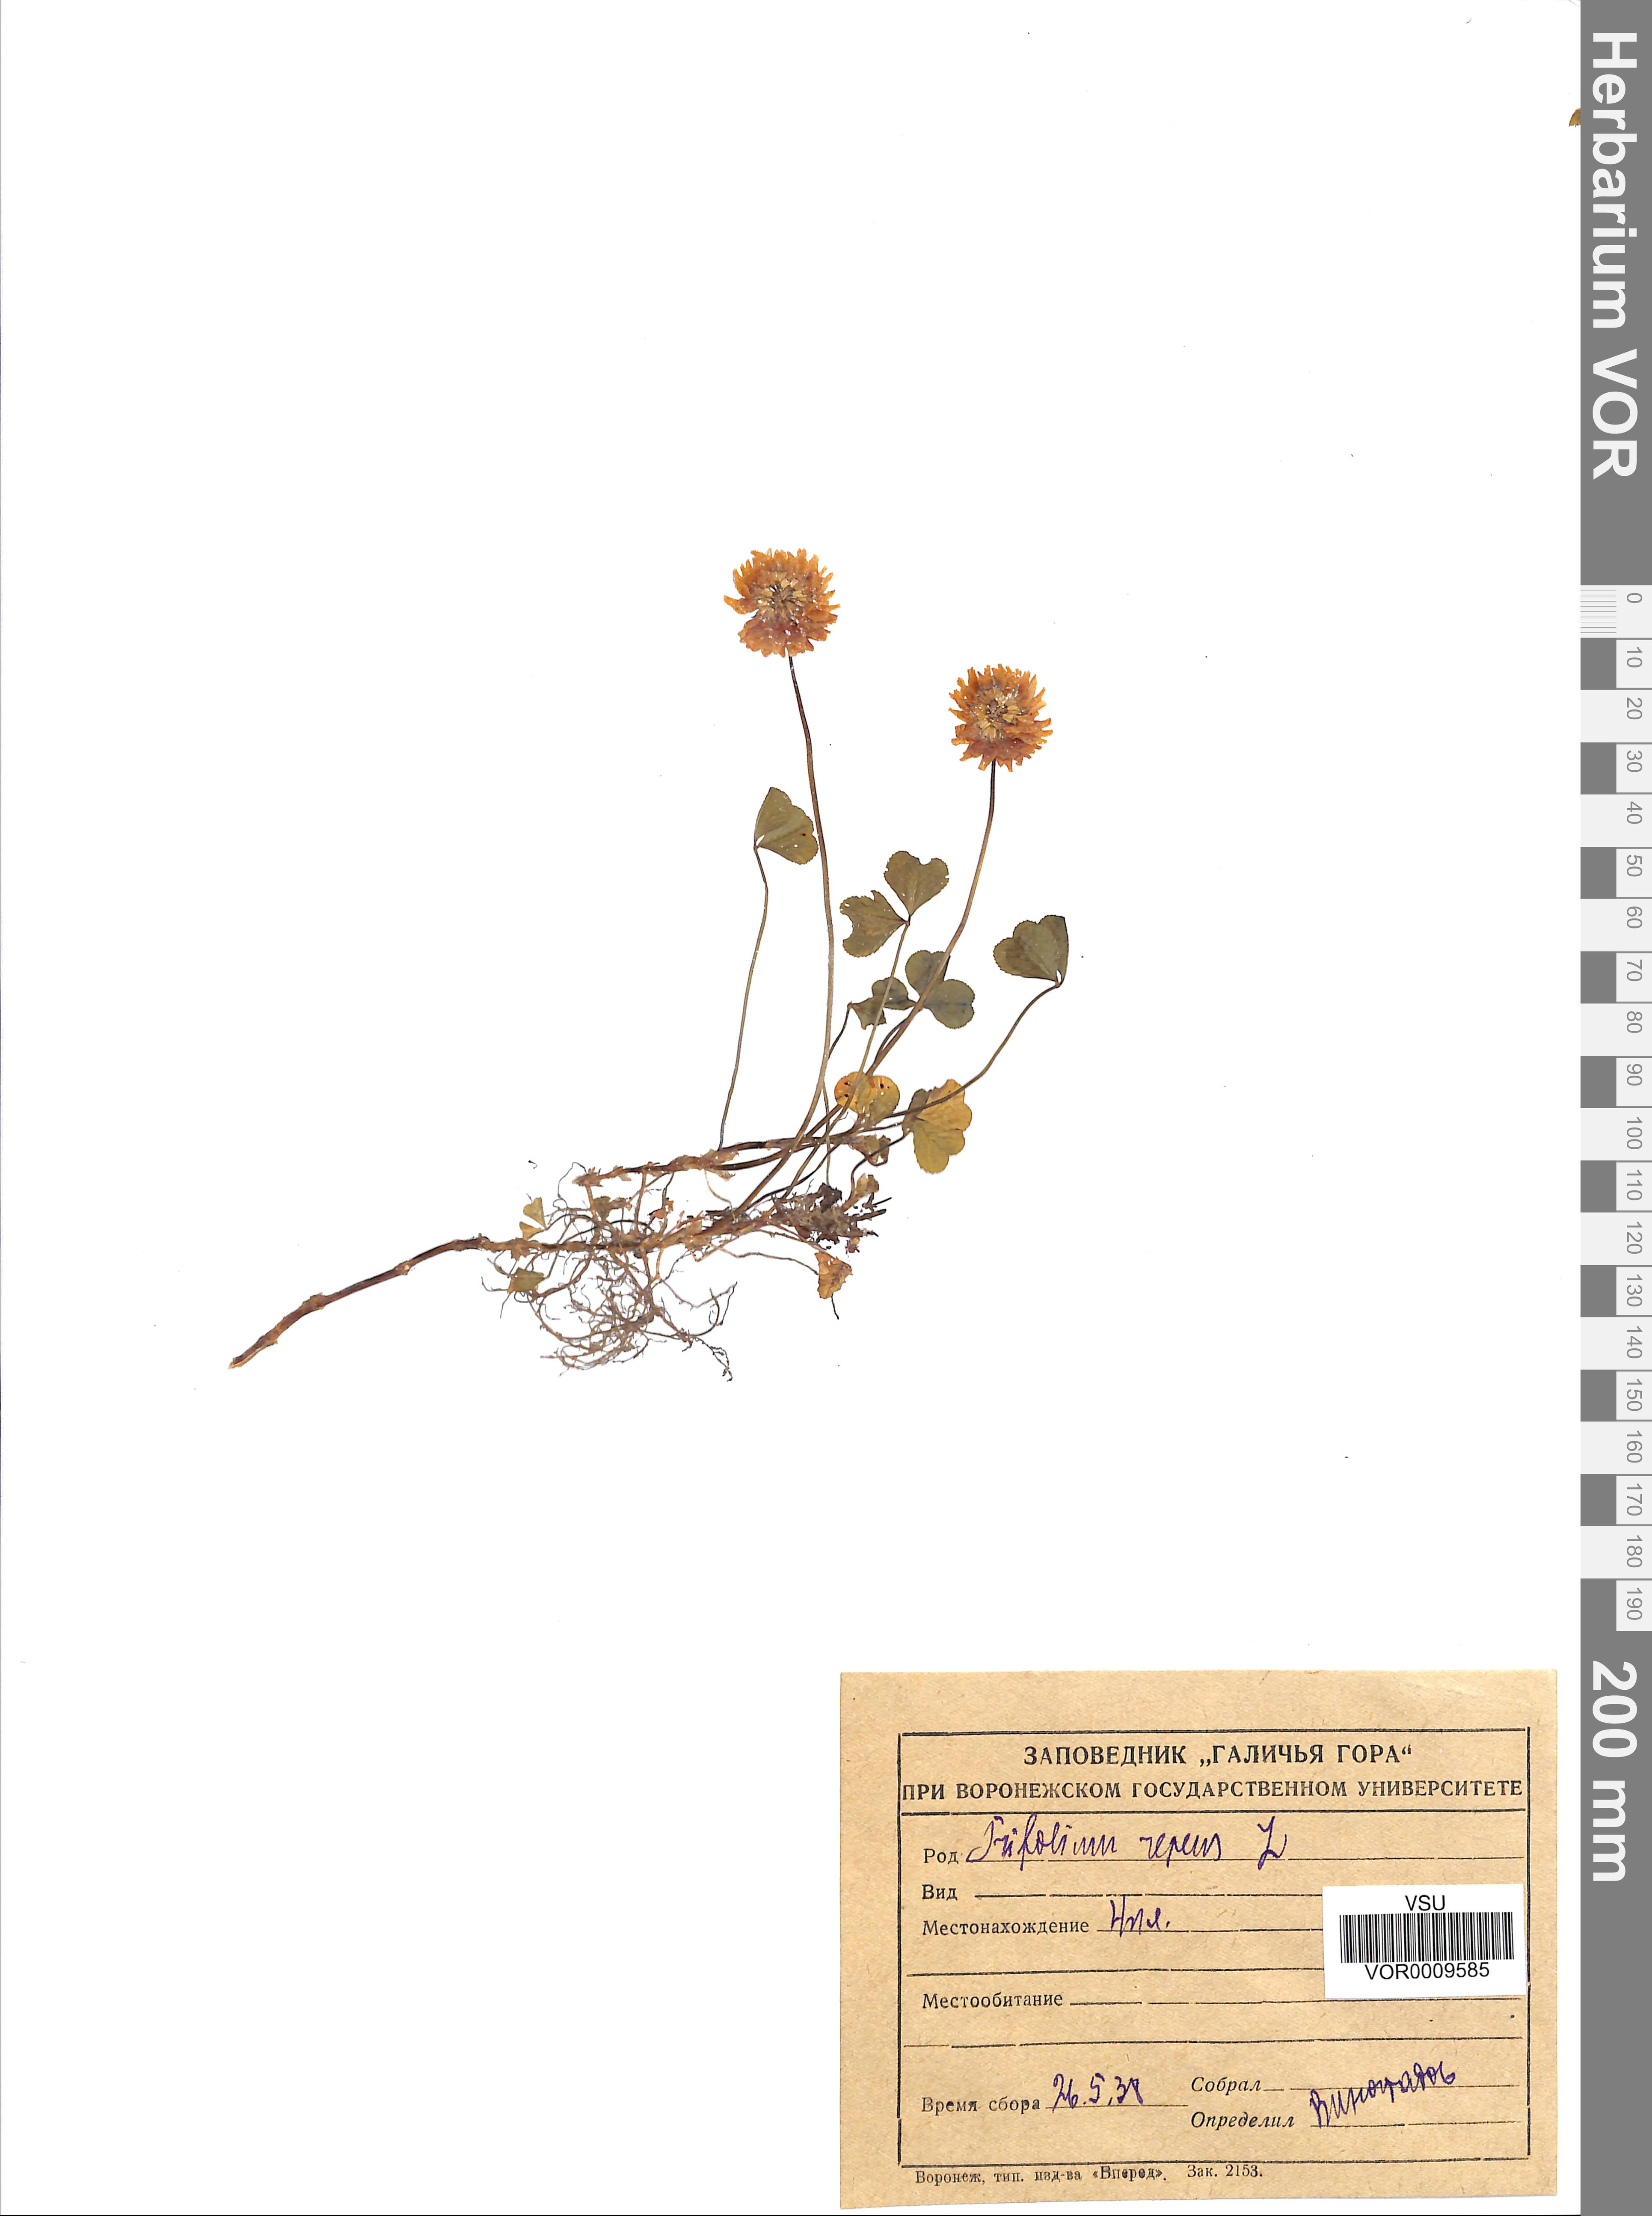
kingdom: Plantae
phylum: Tracheophyta
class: Magnoliopsida
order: Fabales
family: Fabaceae
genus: Trifolium
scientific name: Trifolium repens
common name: White clover
